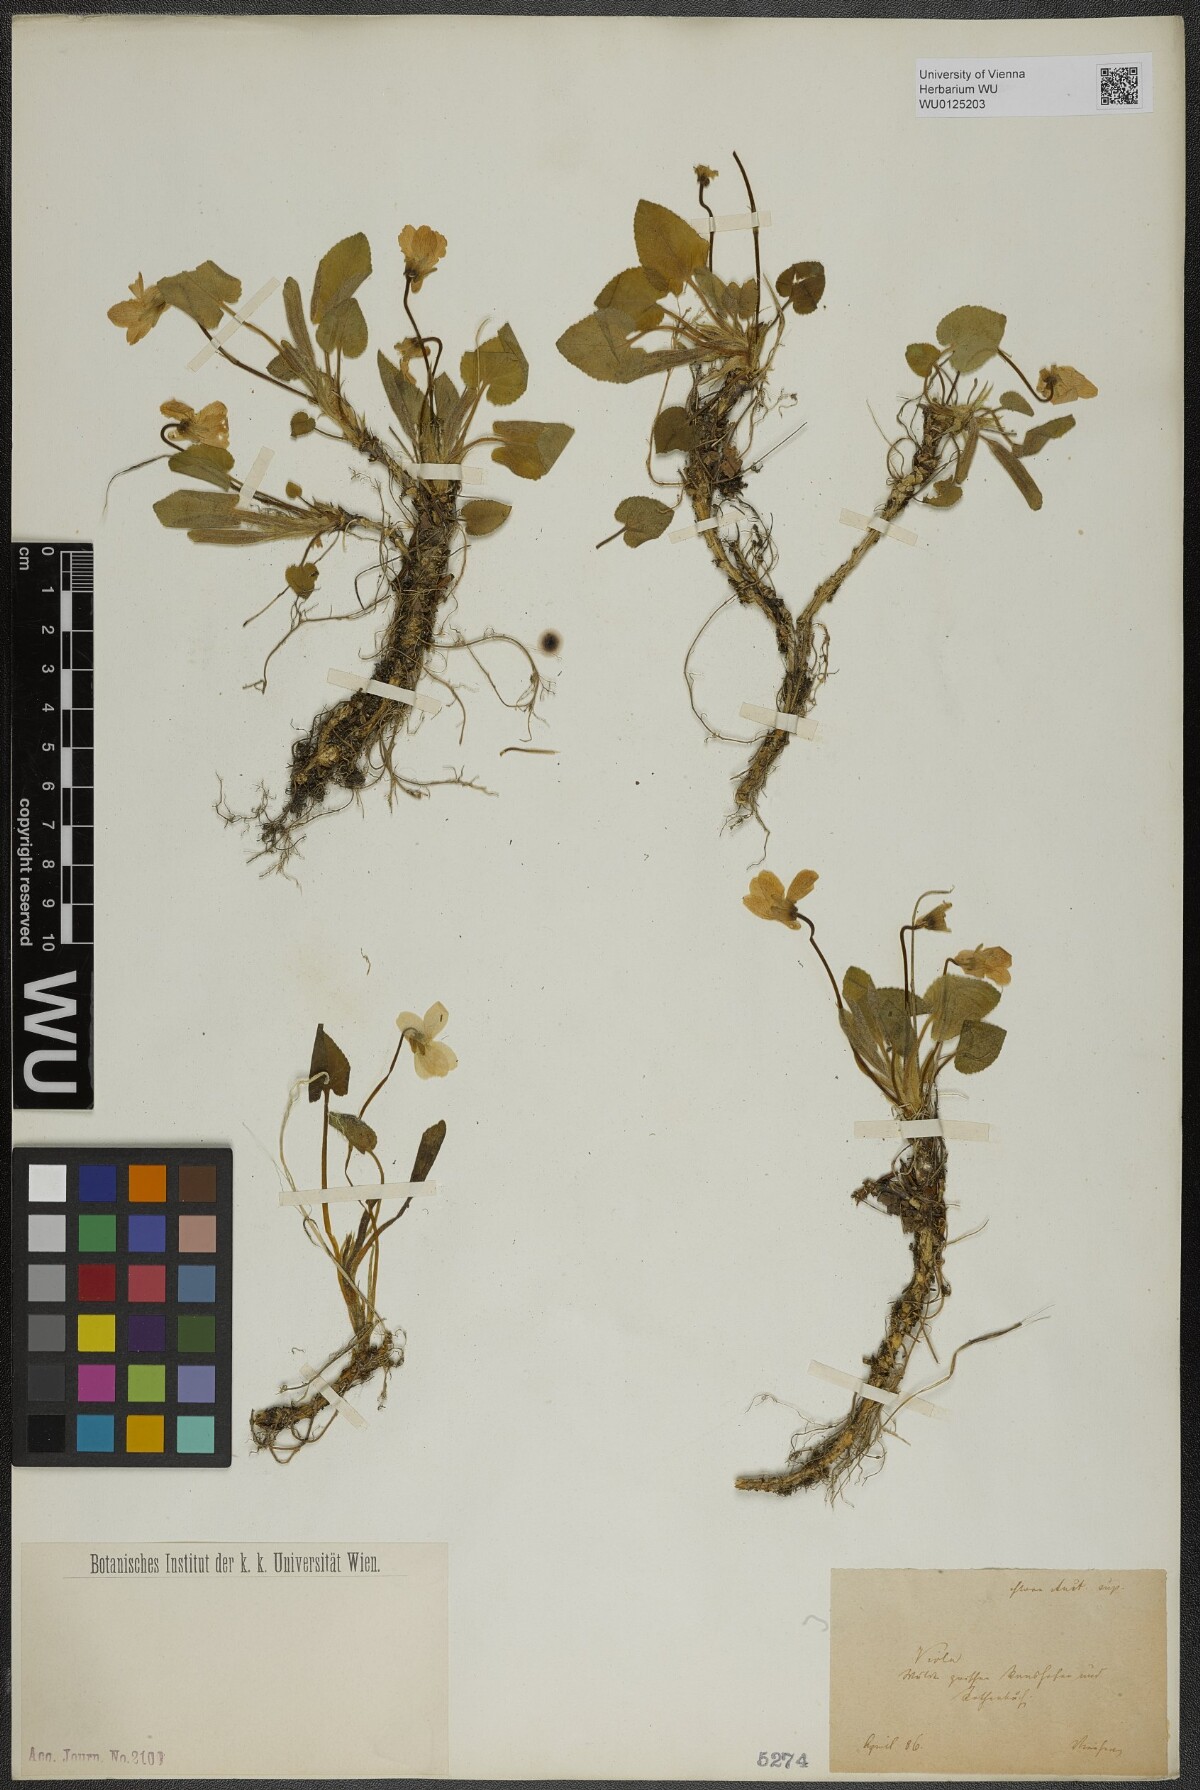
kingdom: Plantae
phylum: Tracheophyta
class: Magnoliopsida
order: Malpighiales
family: Violaceae
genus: Viola
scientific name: Viola hirta
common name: Hairy violet
